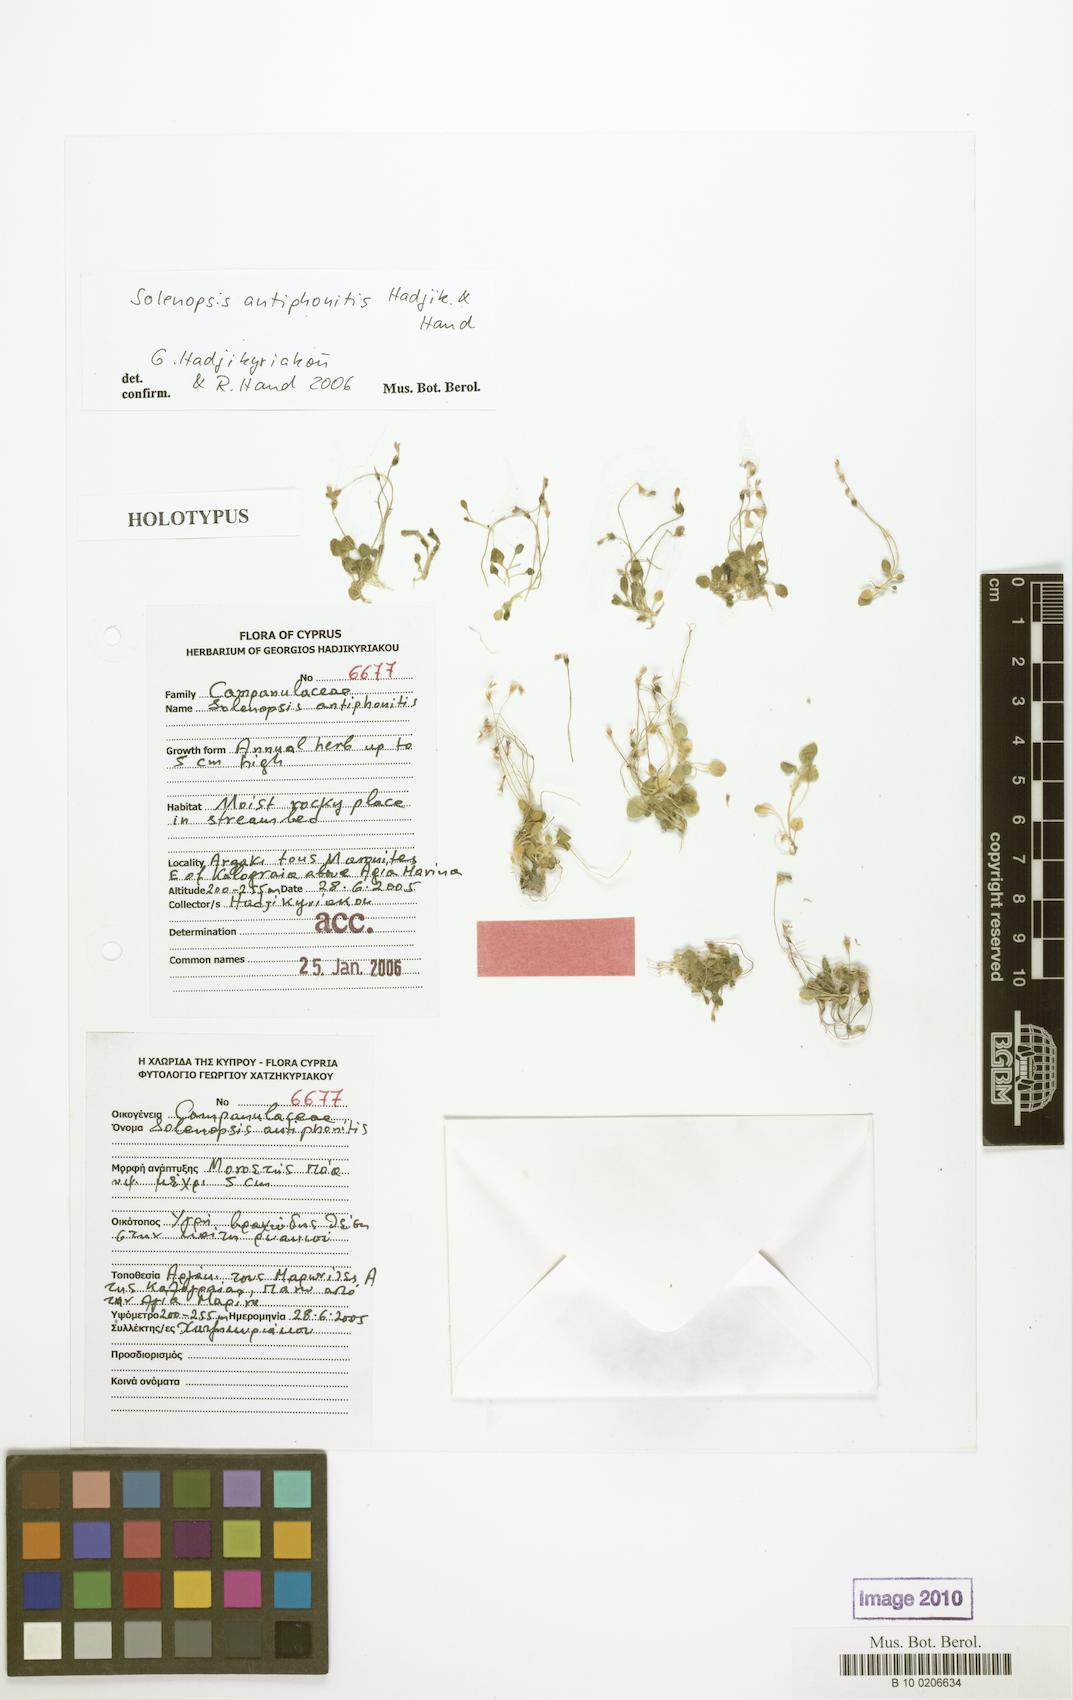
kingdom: Plantae
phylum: Tracheophyta
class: Magnoliopsida
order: Asterales
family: Campanulaceae
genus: Solenopsis
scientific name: Solenopsis antiphonitis
